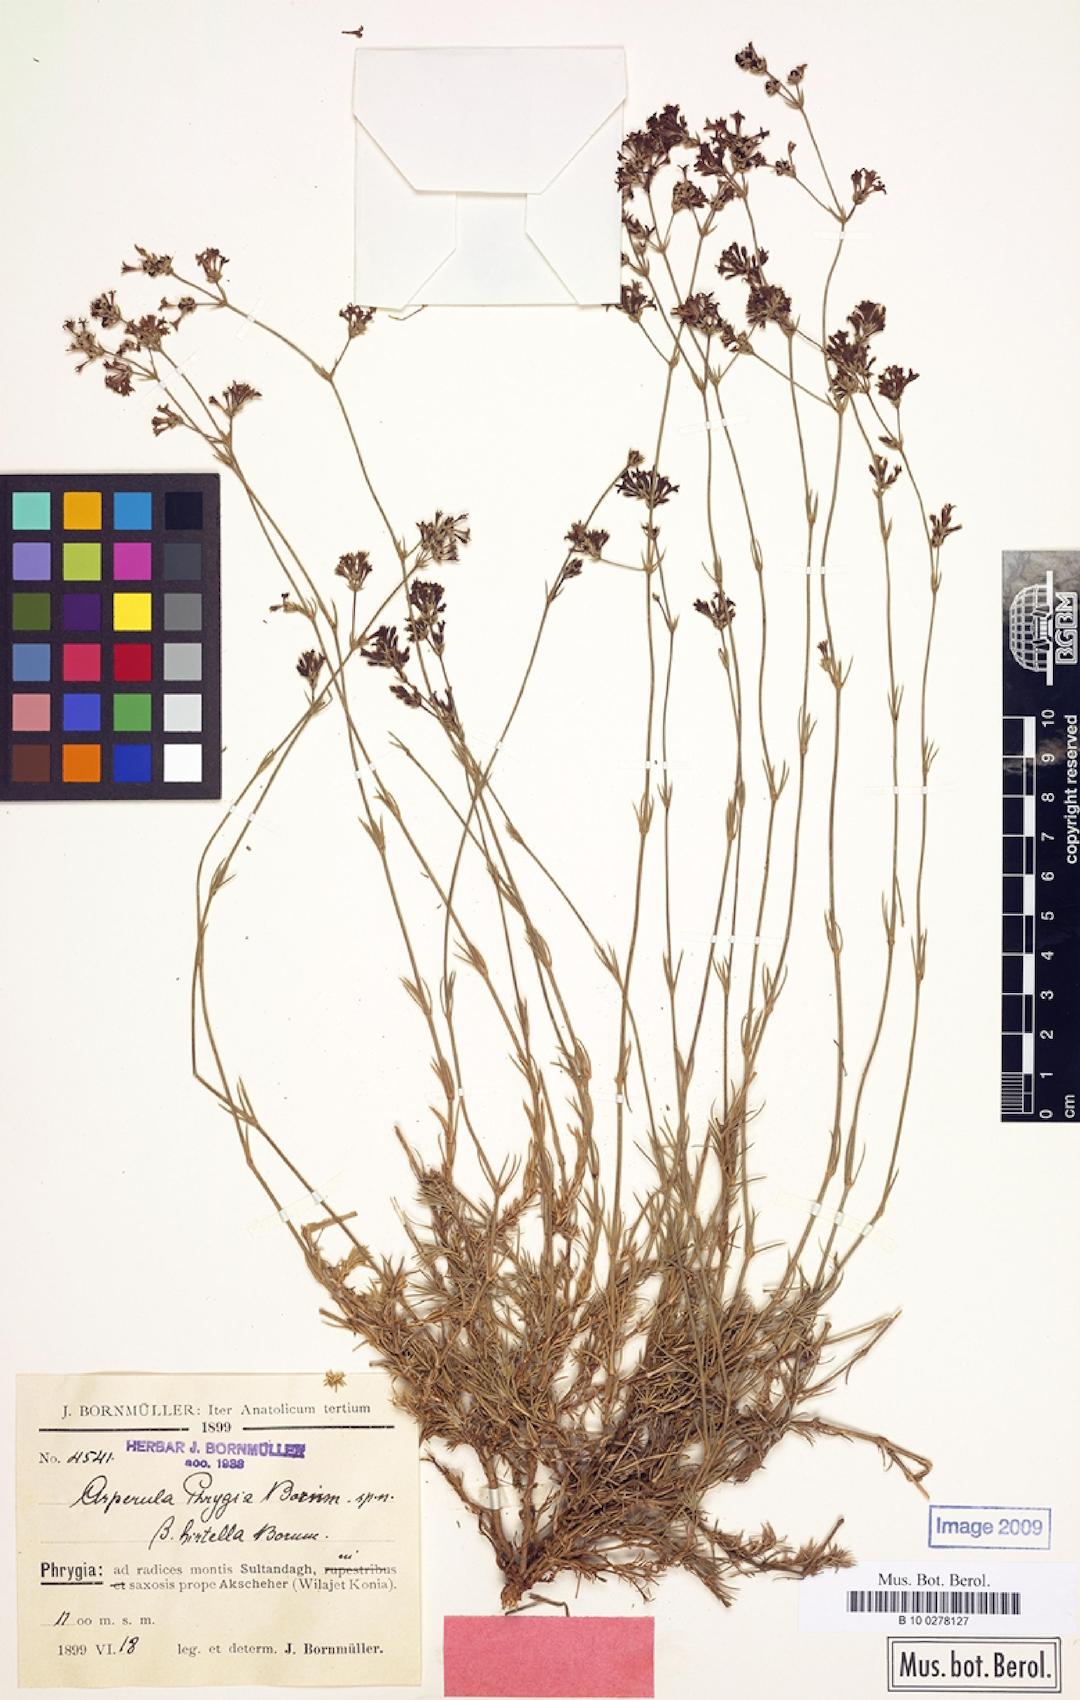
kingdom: Plantae
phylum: Tracheophyta
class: Magnoliopsida
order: Gentianales
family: Rubiaceae
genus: Cynanchica
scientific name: Cynanchica lilaciflora
